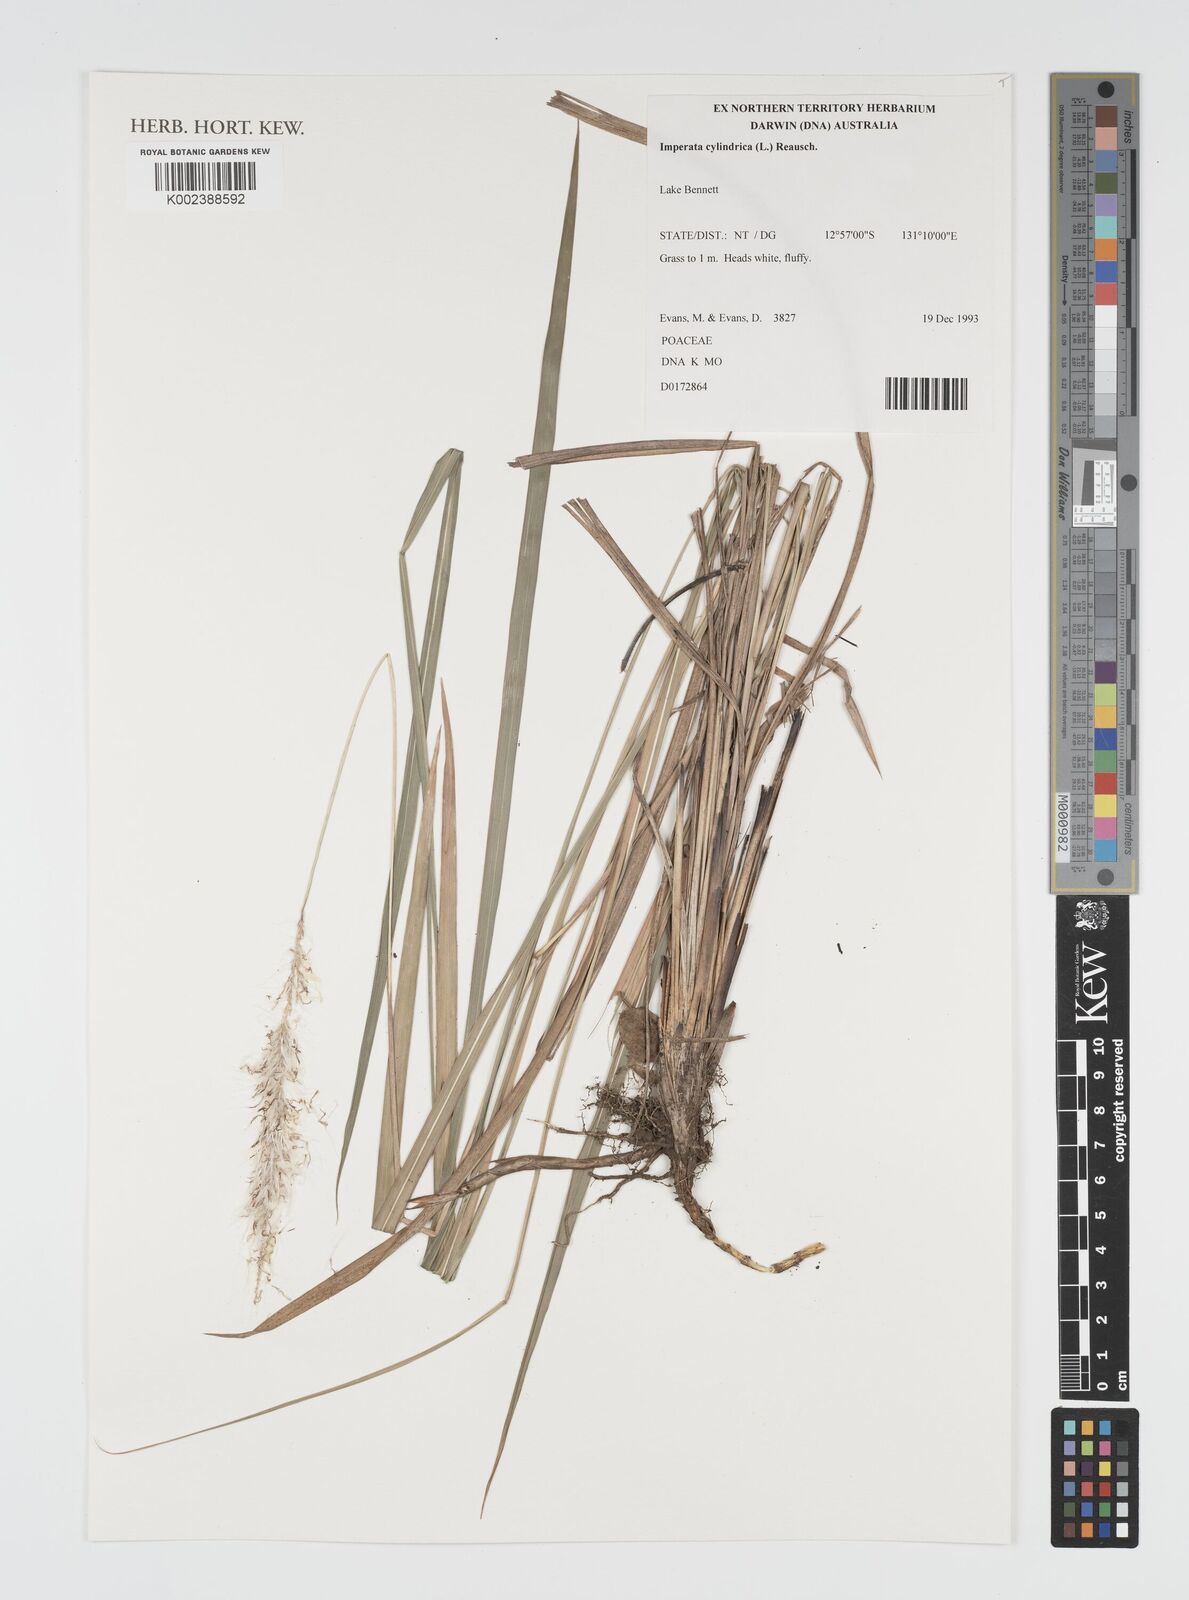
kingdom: Plantae
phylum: Tracheophyta
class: Liliopsida
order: Poales
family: Poaceae
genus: Imperata
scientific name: Imperata cylindrica
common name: Cogongrass
